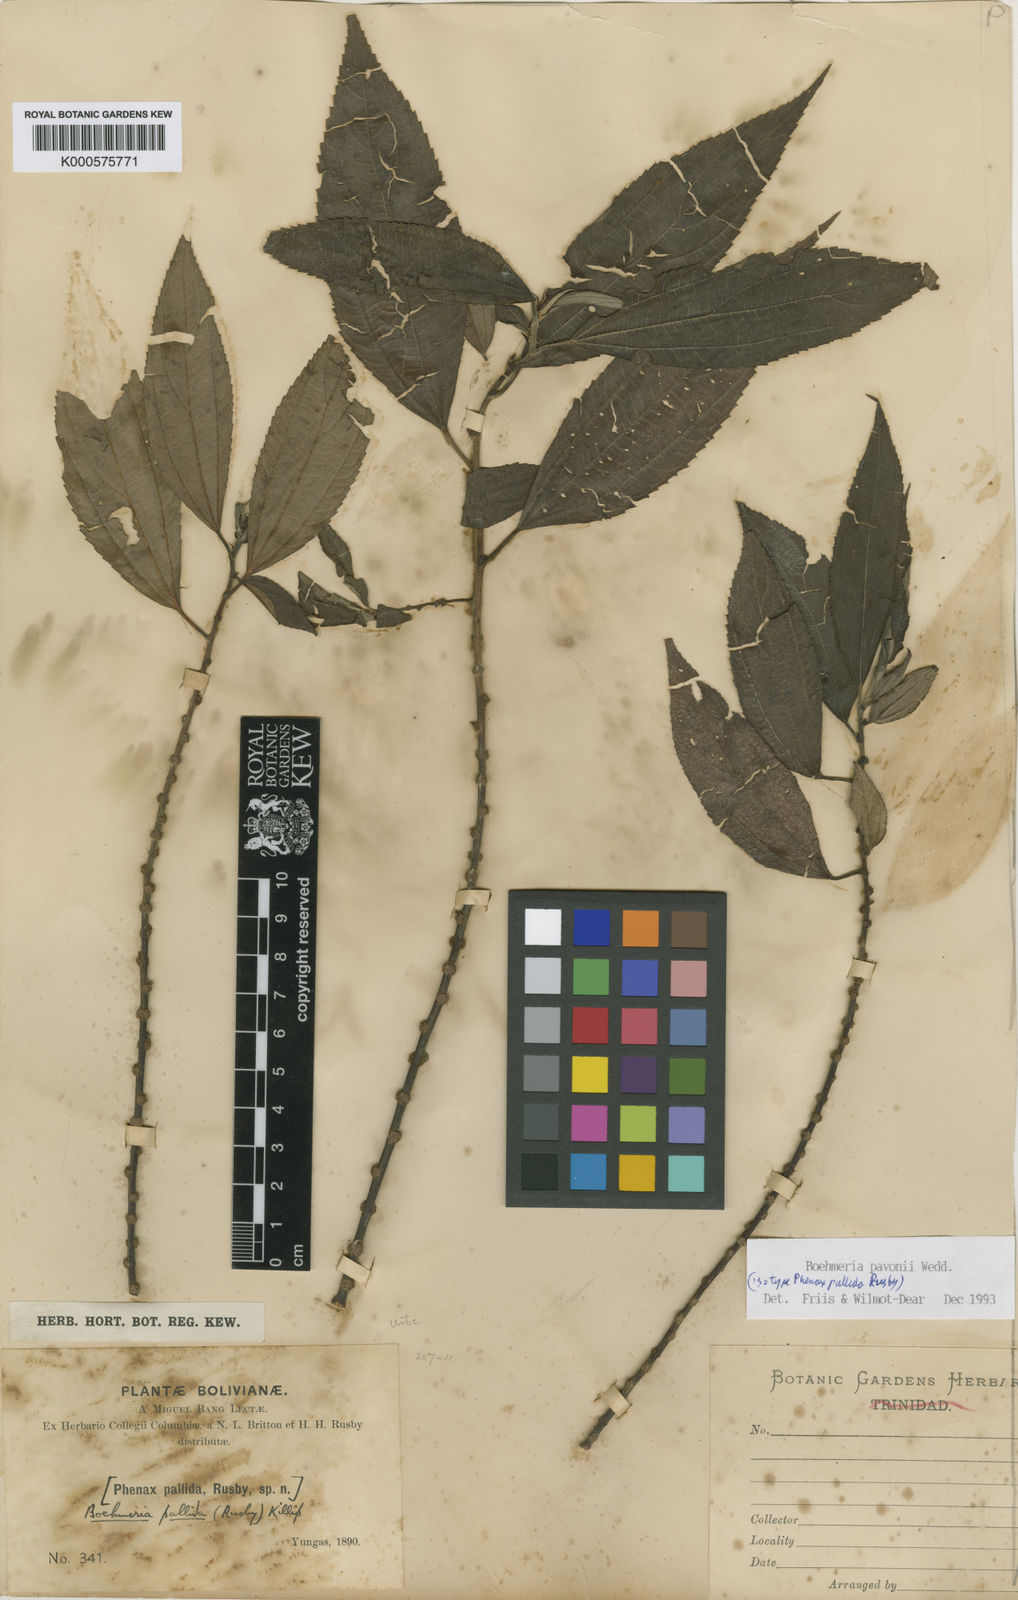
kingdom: Plantae
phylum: Tracheophyta
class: Magnoliopsida
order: Rosales
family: Urticaceae
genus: Boehmeria
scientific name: Boehmeria pavonii
